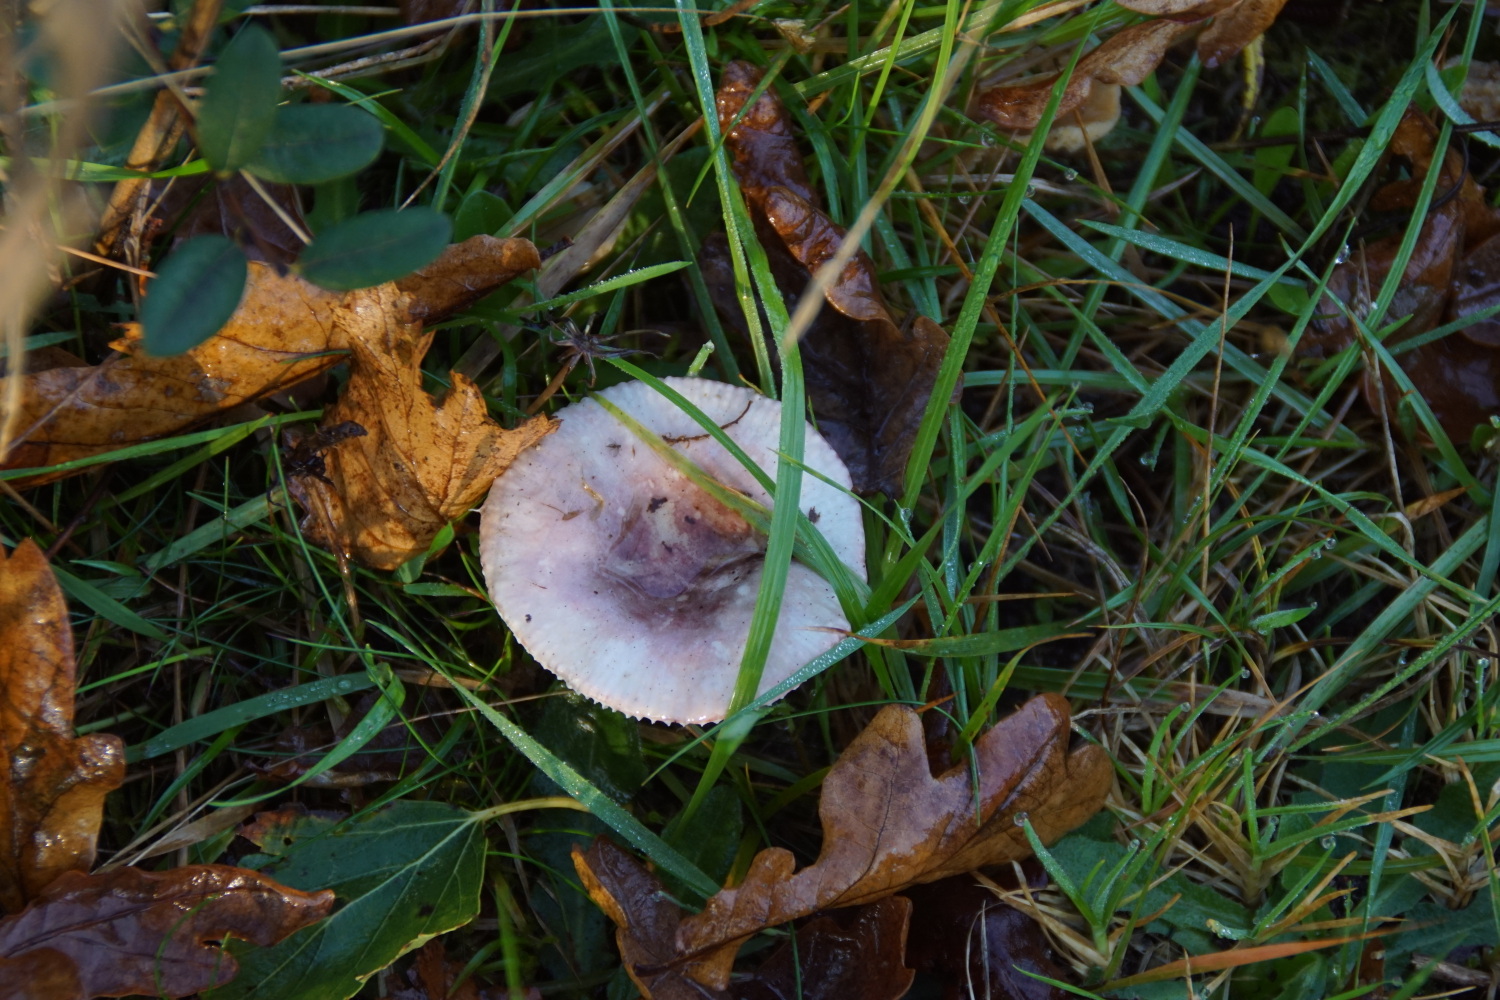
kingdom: Fungi
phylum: Basidiomycota
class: Agaricomycetes
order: Russulales
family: Russulaceae
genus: Russula
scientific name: Russula fragilis
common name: savbladet skørhat
